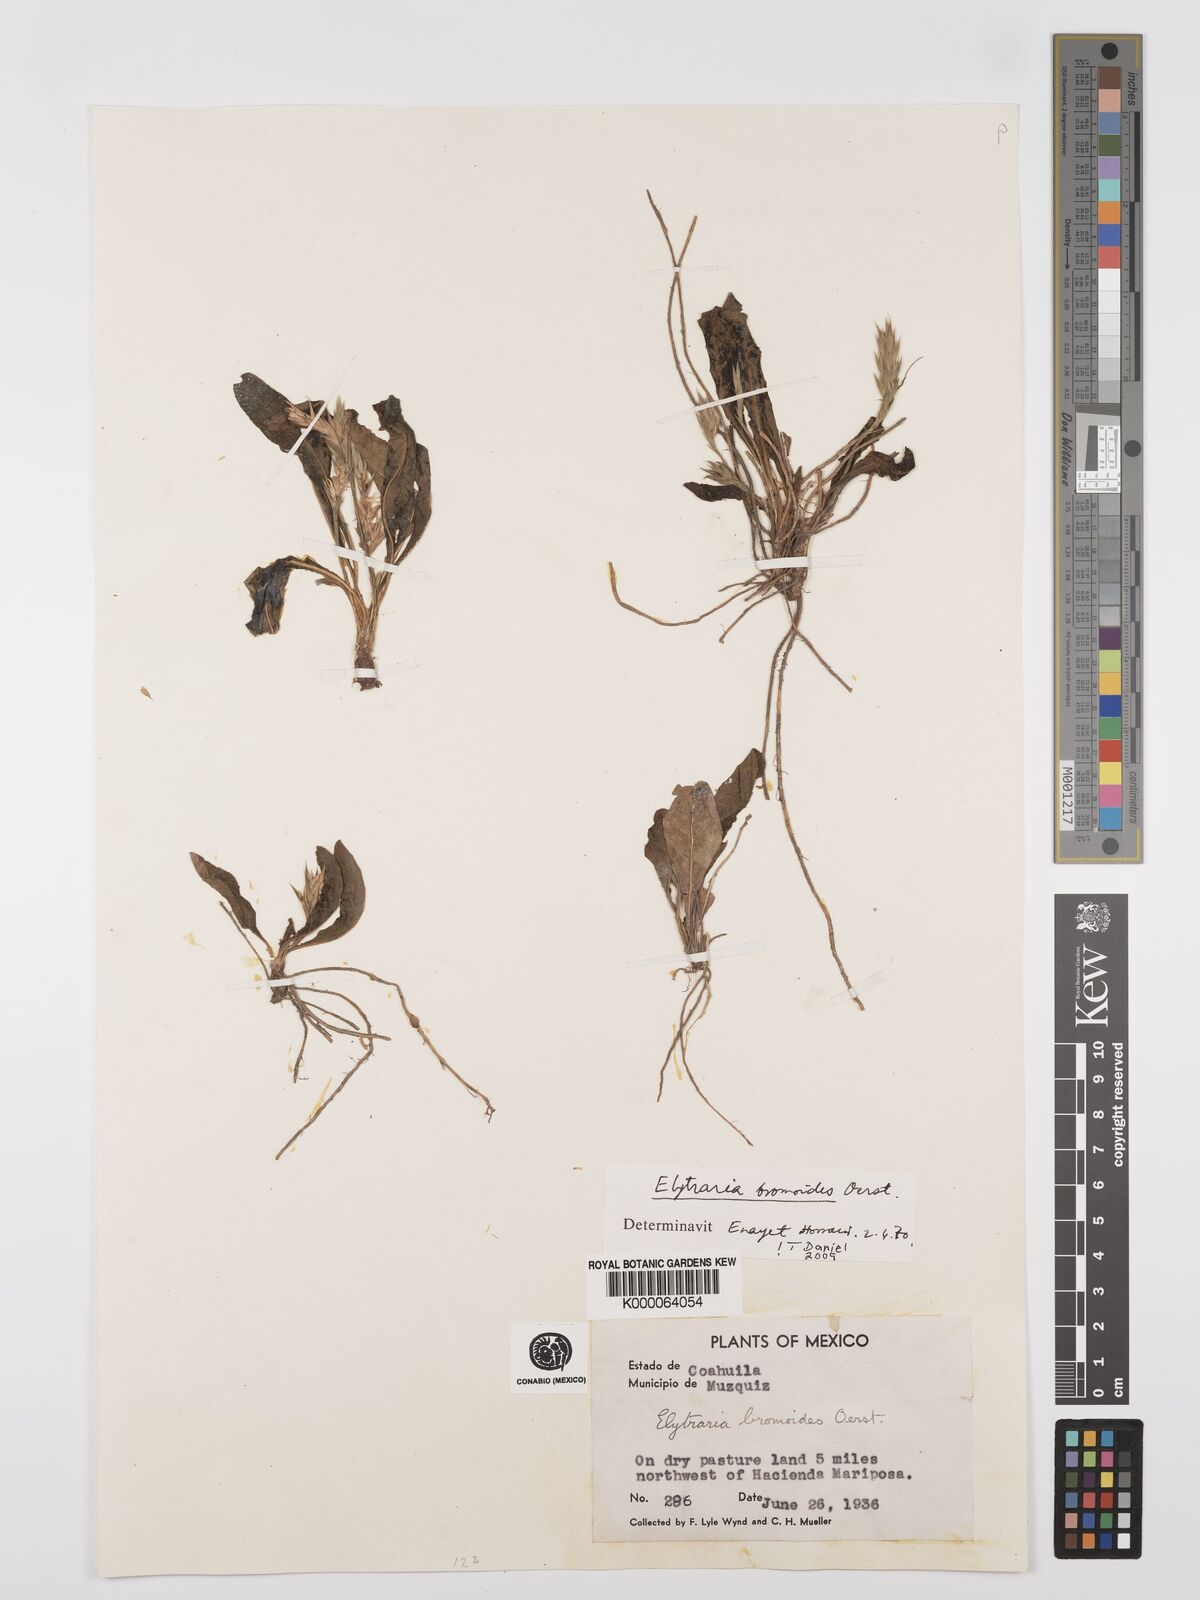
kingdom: Plantae
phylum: Tracheophyta
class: Magnoliopsida
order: Lamiales
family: Acanthaceae
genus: Elytraria
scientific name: Elytraria bromoides
